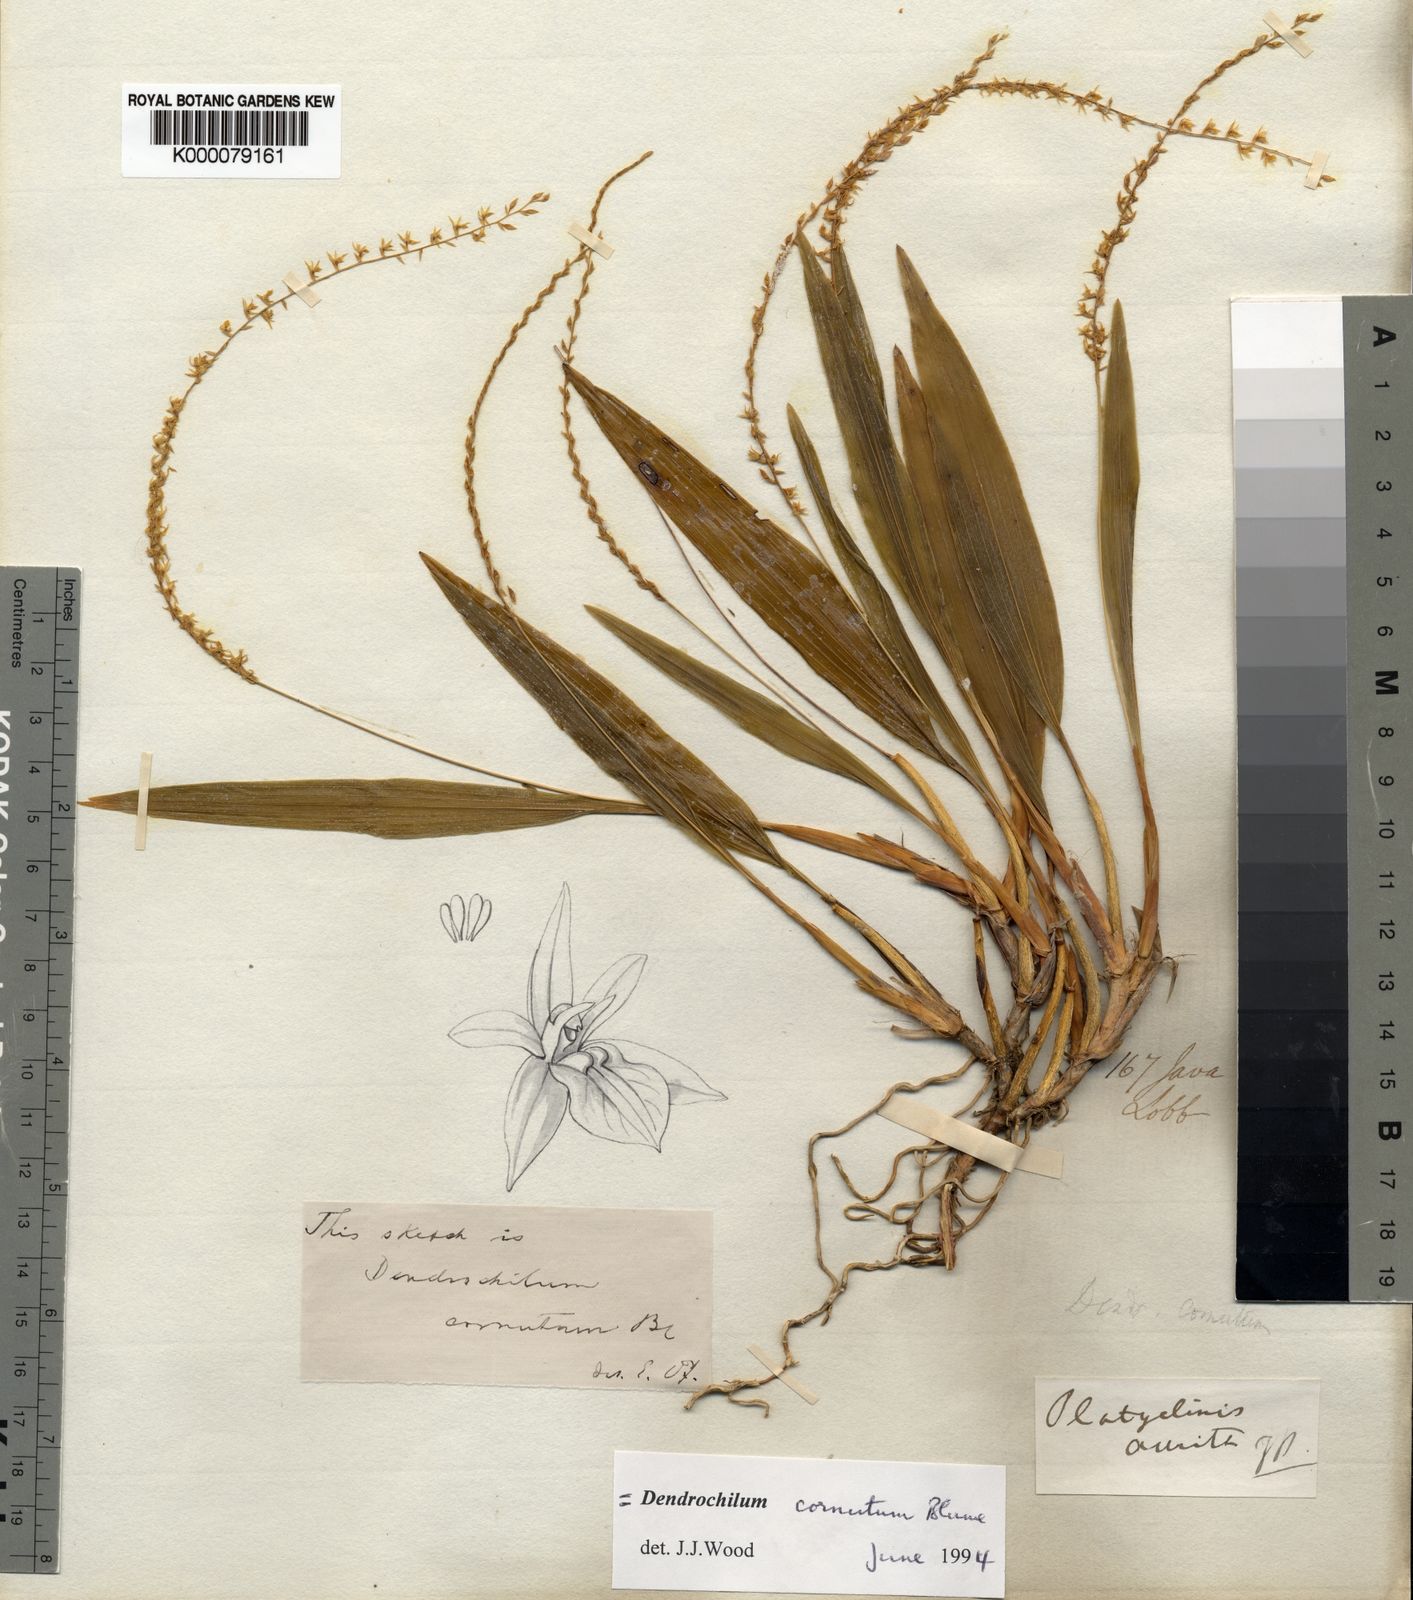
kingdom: Plantae
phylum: Tracheophyta
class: Liliopsida
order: Asparagales
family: Orchidaceae
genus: Coelogyne
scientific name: Coelogyne cornuta
